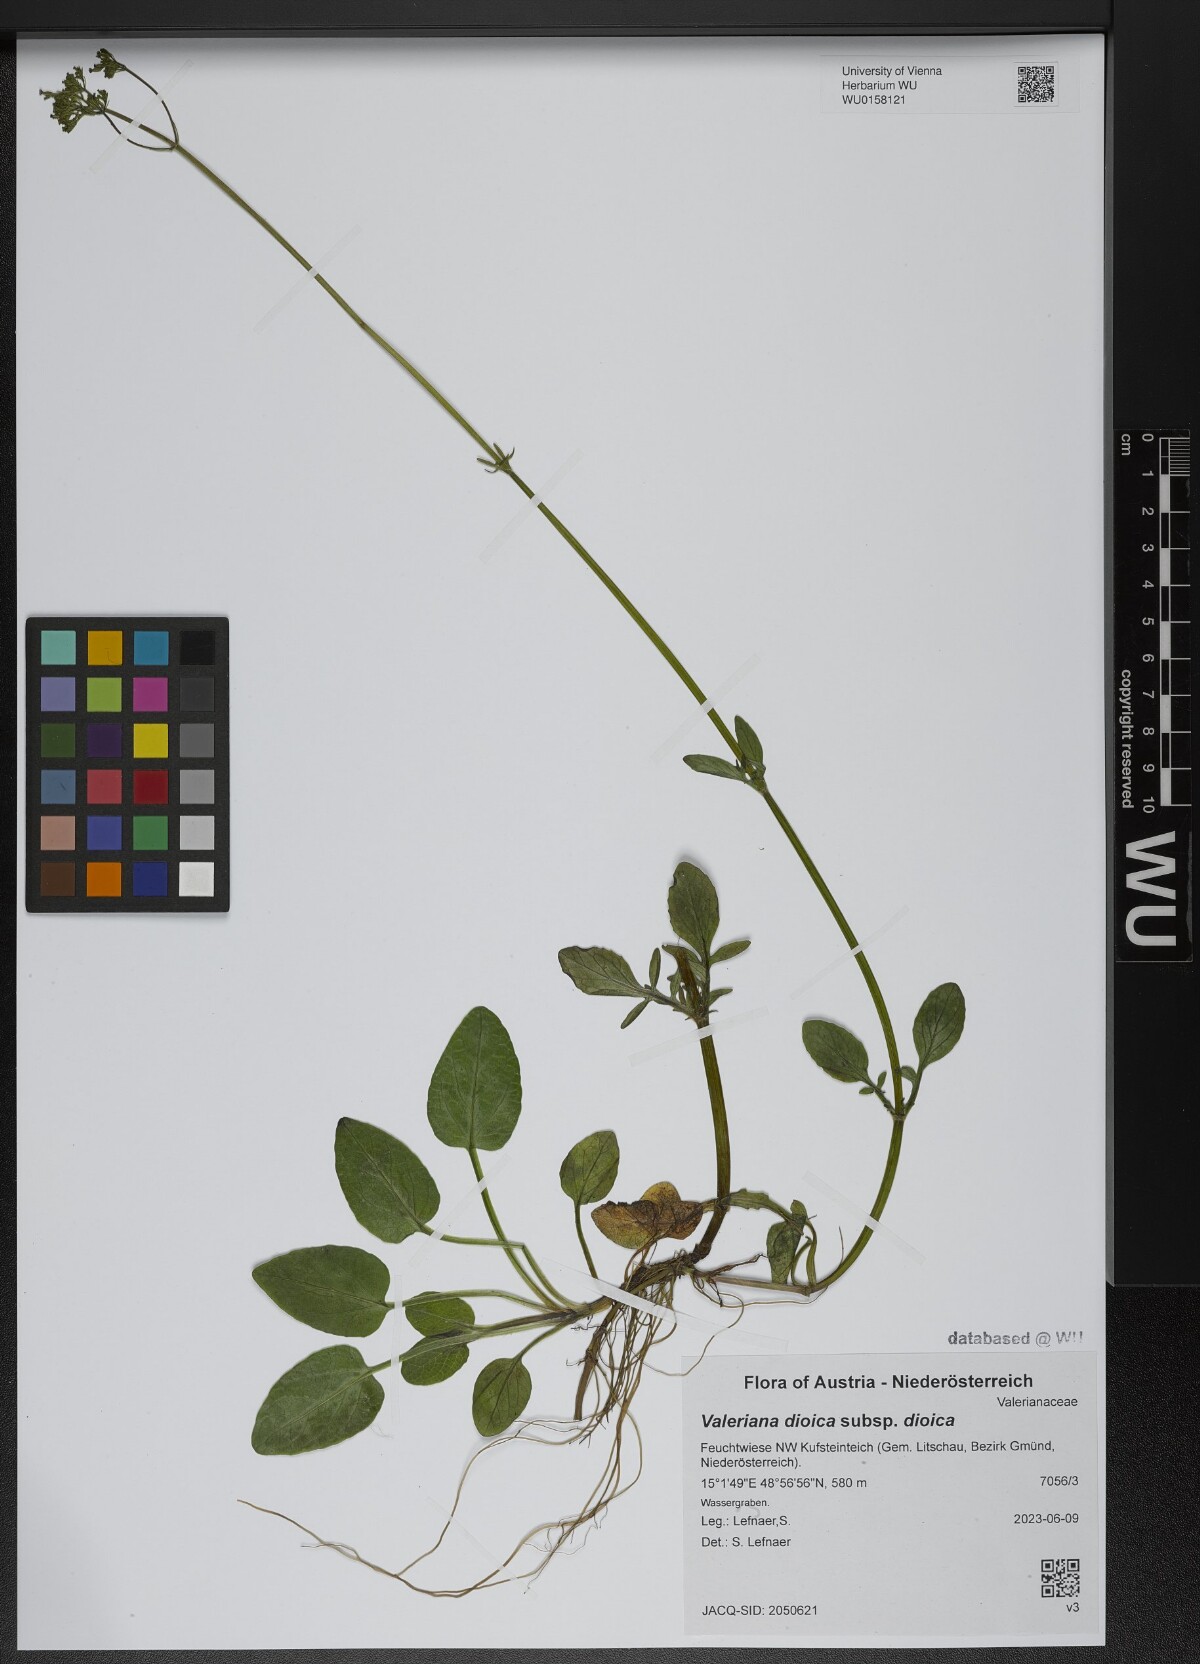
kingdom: Plantae
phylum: Tracheophyta
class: Magnoliopsida
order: Dipsacales
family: Caprifoliaceae
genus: Valeriana
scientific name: Valeriana dioica
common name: Marsh valerian
